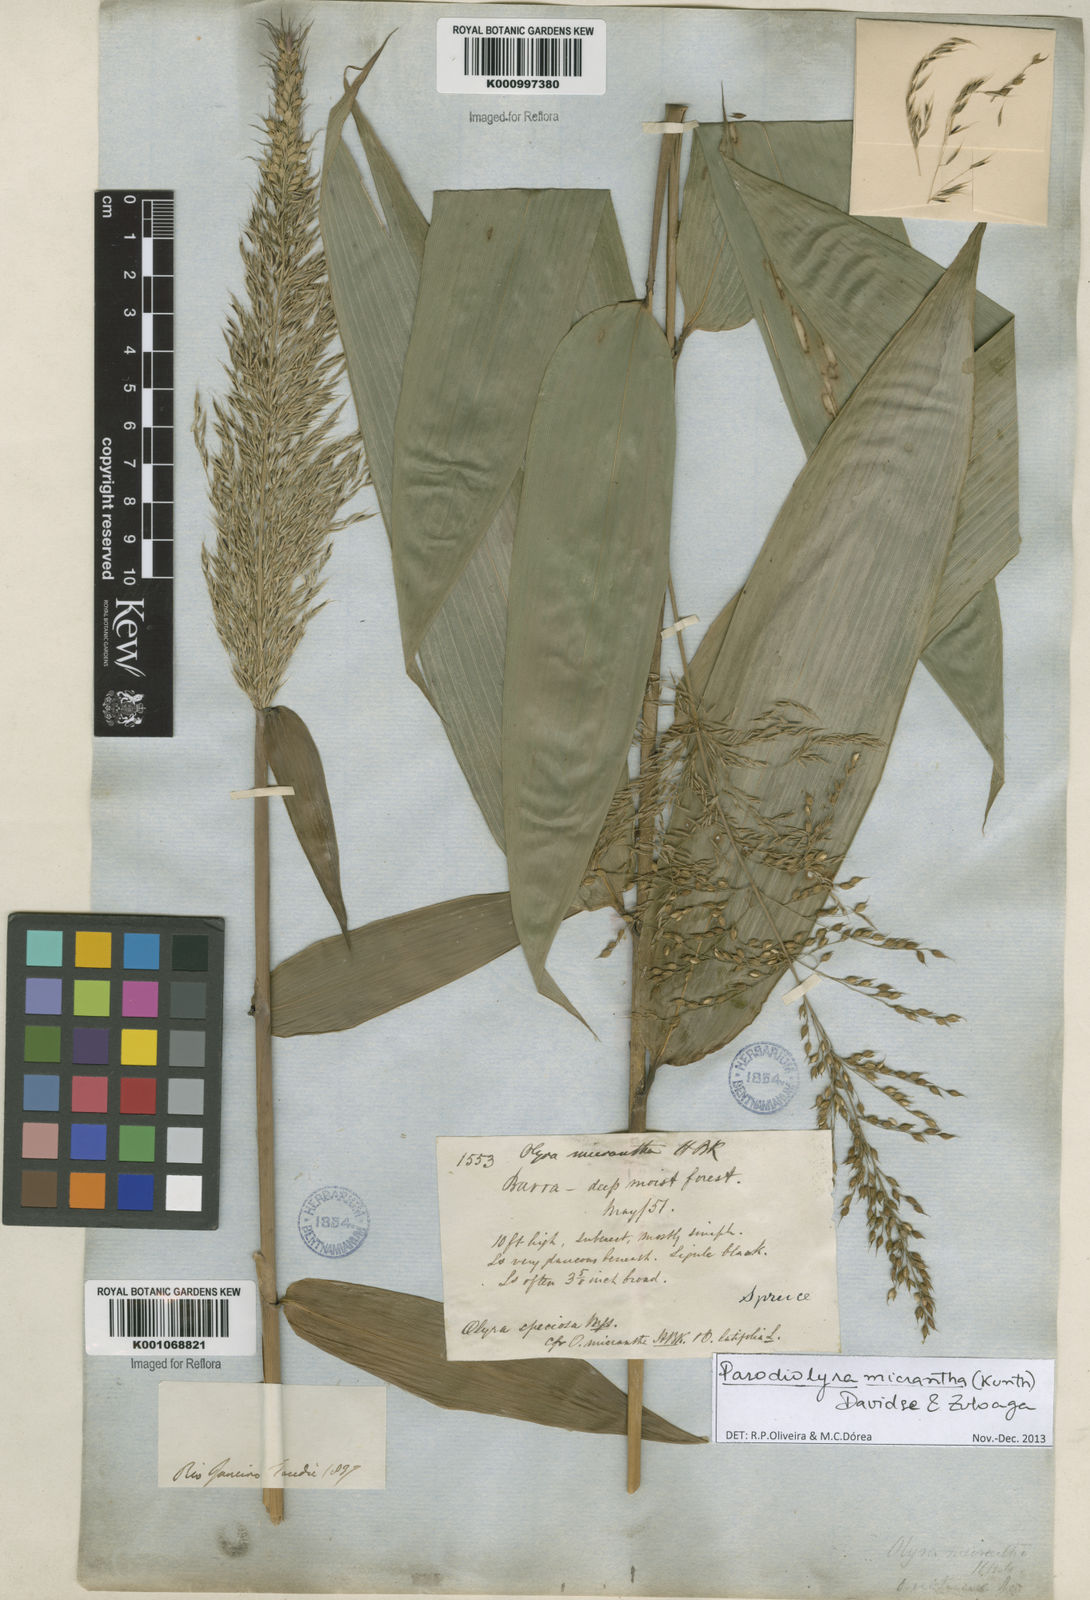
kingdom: Plantae
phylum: Tracheophyta
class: Liliopsida
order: Poales
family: Poaceae
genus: Taquara
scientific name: Taquara micrantha
